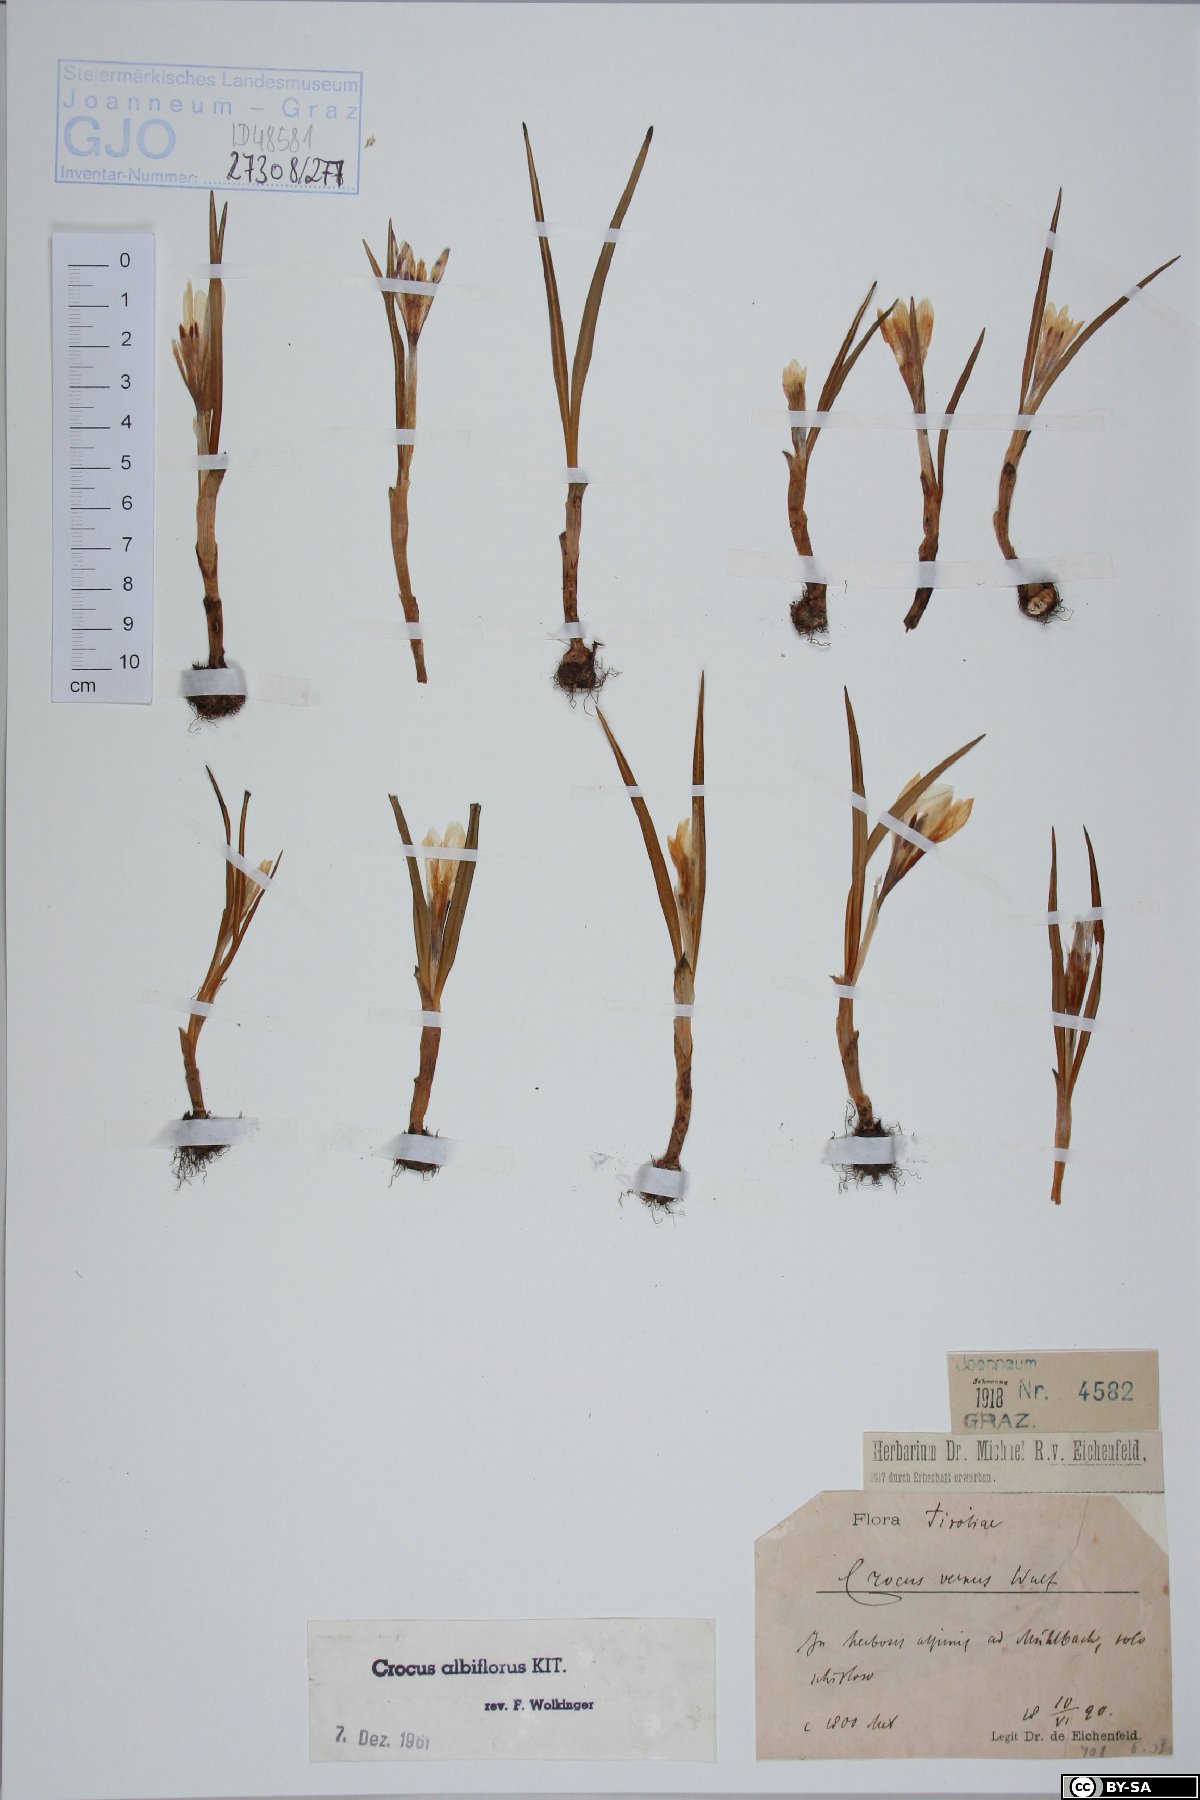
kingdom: Plantae
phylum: Tracheophyta
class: Liliopsida
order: Asparagales
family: Iridaceae
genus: Crocus
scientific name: Crocus vernus
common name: Spring crocus
